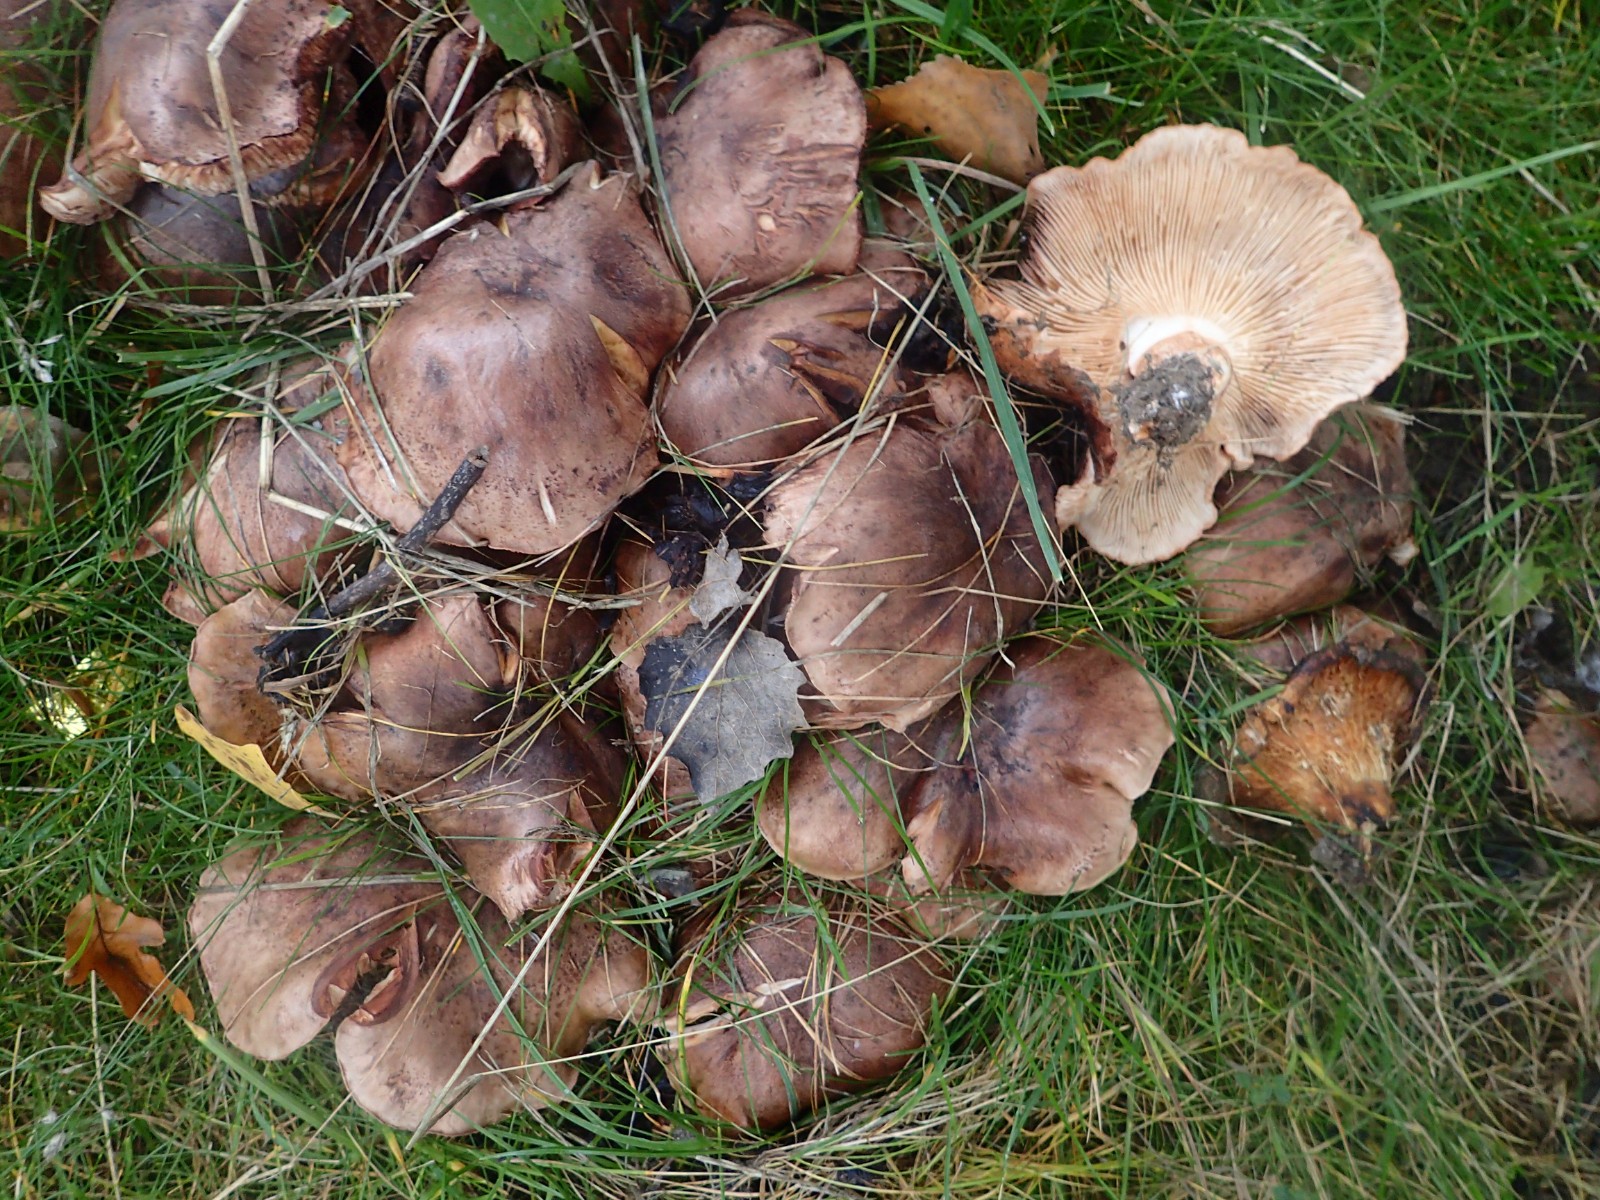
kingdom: Fungi
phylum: Basidiomycota
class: Agaricomycetes
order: Agaricales
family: Tricholomataceae
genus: Tricholoma
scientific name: Tricholoma populinum
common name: poppel-ridderhat
